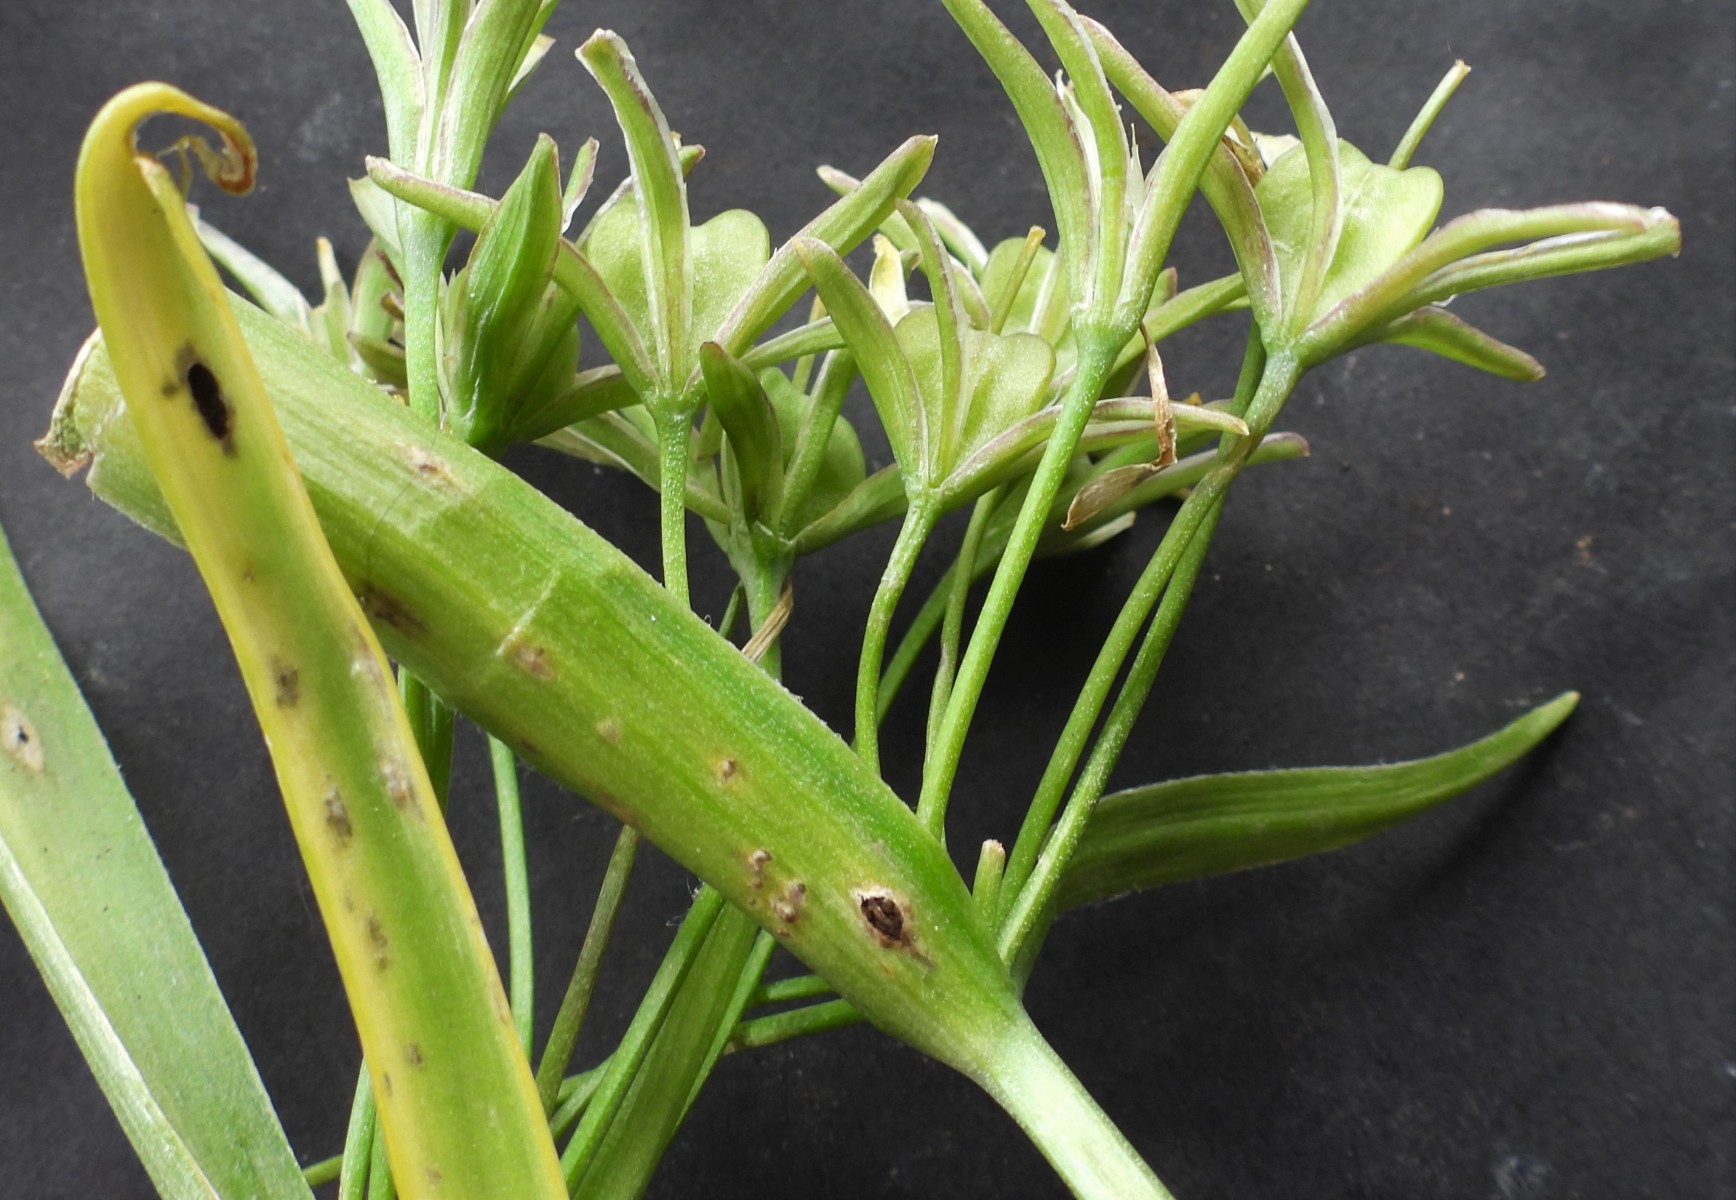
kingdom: Fungi
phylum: Basidiomycota
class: Ustilaginomycetes
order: Urocystidales
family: Urocystidaceae
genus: Vankya
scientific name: Vankya ornithogali
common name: Yellow star-of-bethlehem smut
